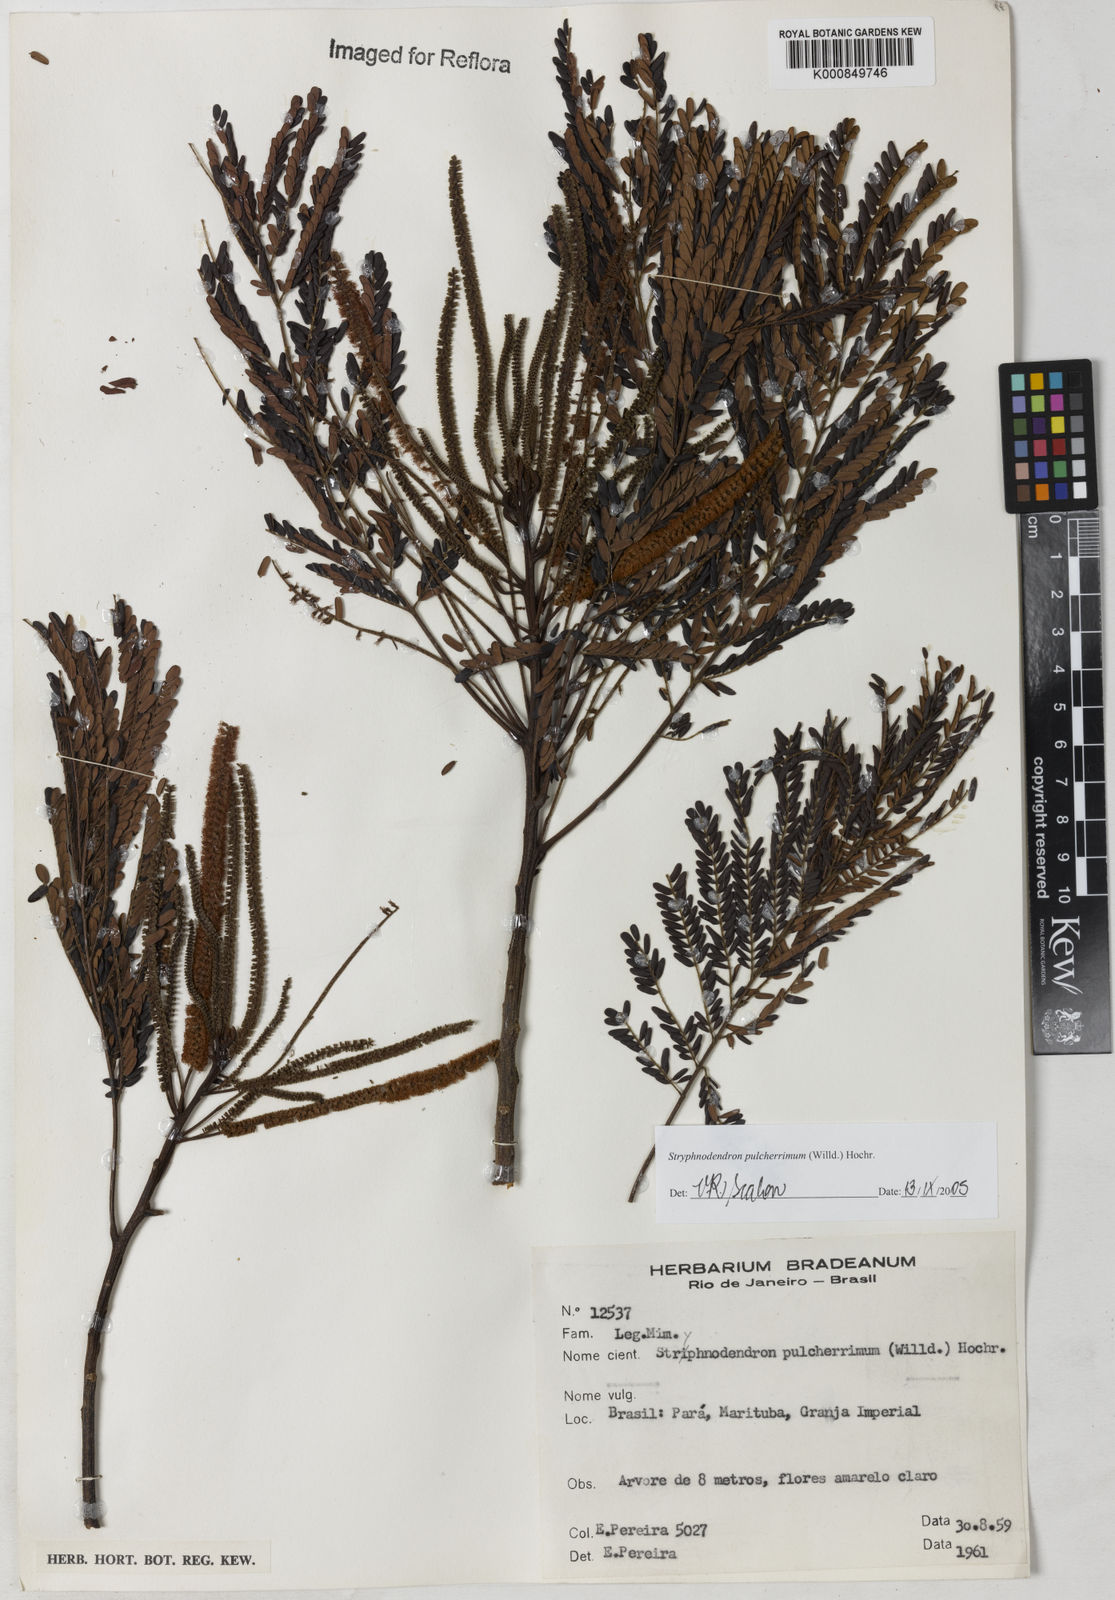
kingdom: Plantae
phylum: Tracheophyta
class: Magnoliopsida
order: Fabales
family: Fabaceae
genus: Stryphnodendron
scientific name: Stryphnodendron pulcherrimum
